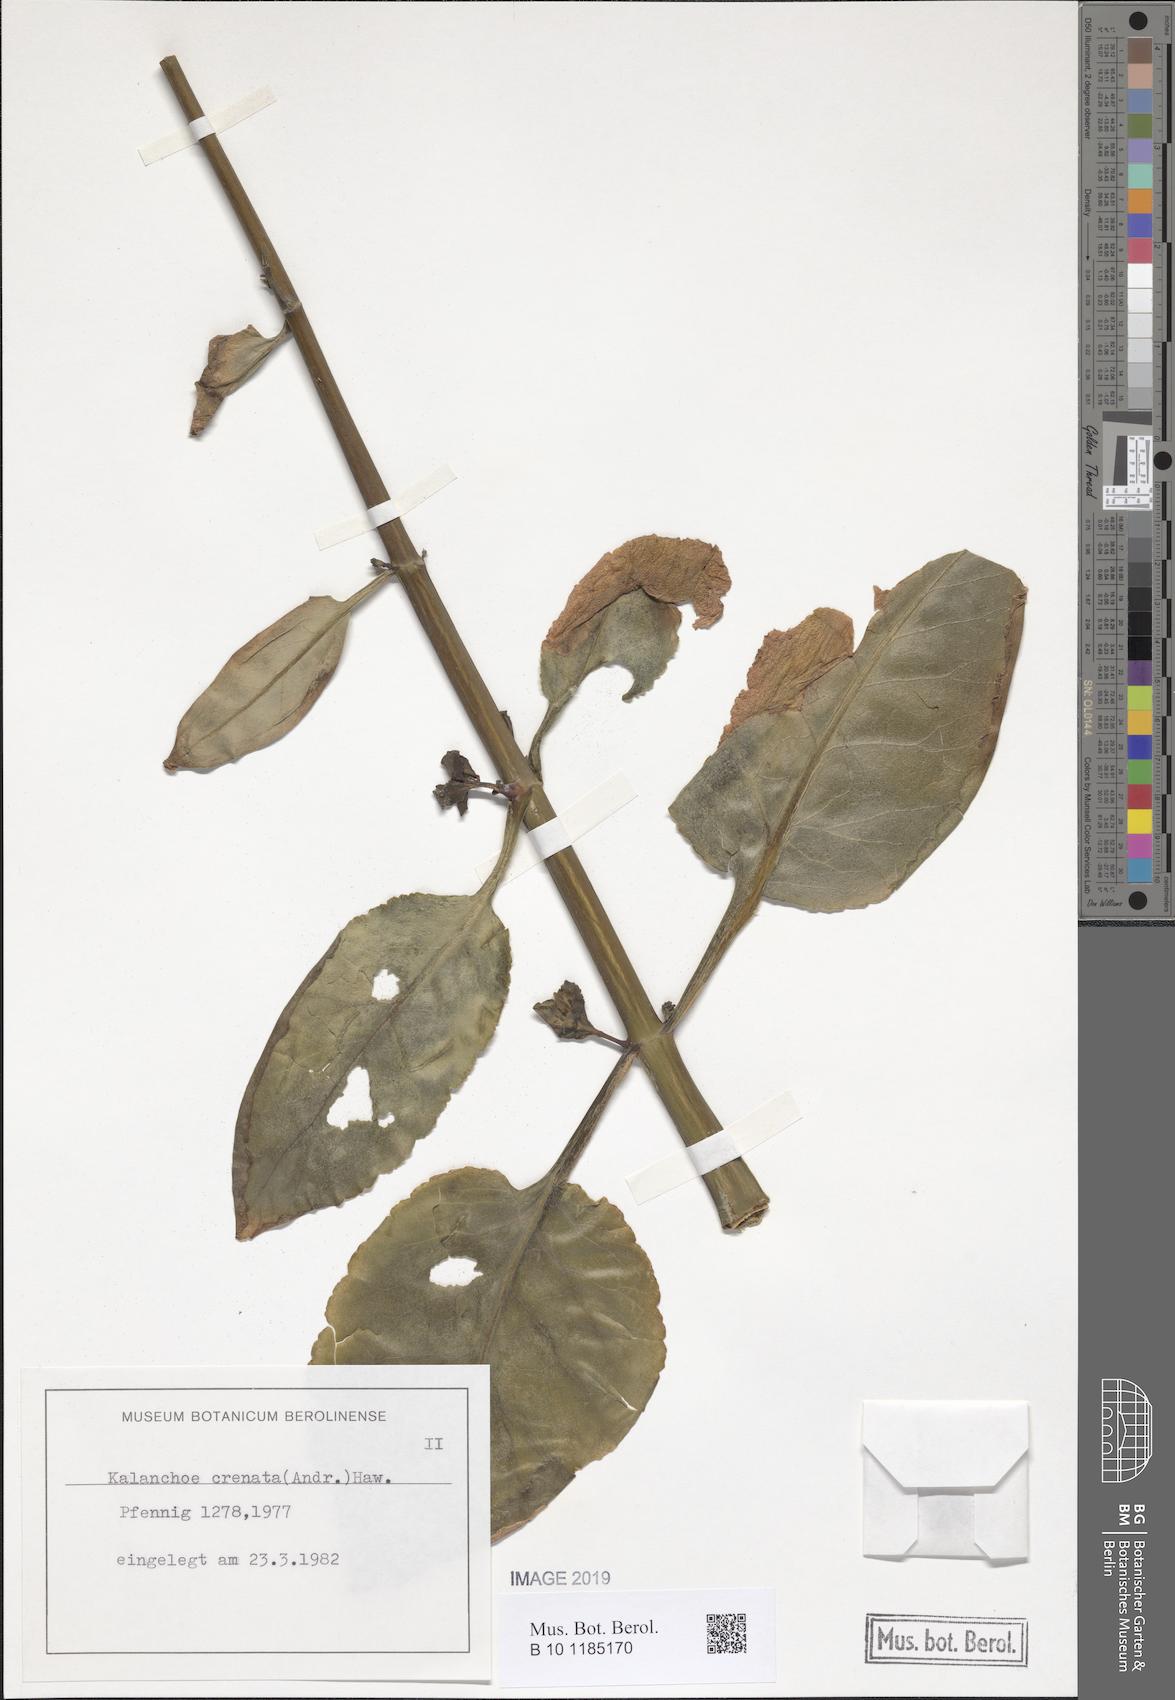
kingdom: Plantae
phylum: Tracheophyta
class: Magnoliopsida
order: Saxifragales
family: Crassulaceae
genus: Kalanchoe
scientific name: Kalanchoe crenata
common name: Neverdie
